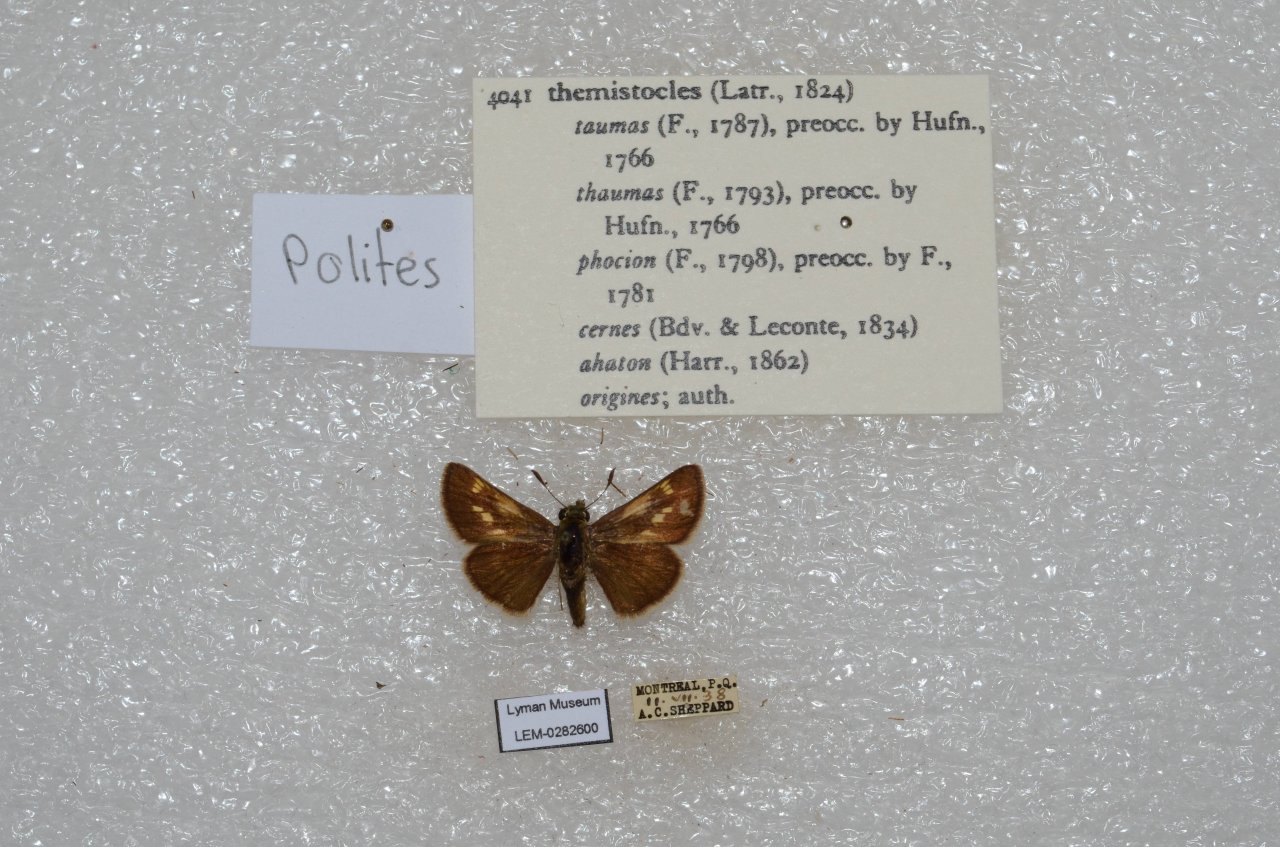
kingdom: Animalia
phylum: Arthropoda
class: Insecta
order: Lepidoptera
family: Hesperiidae
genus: Polites
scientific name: Polites themistocles
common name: Tawny-edged Skipper
